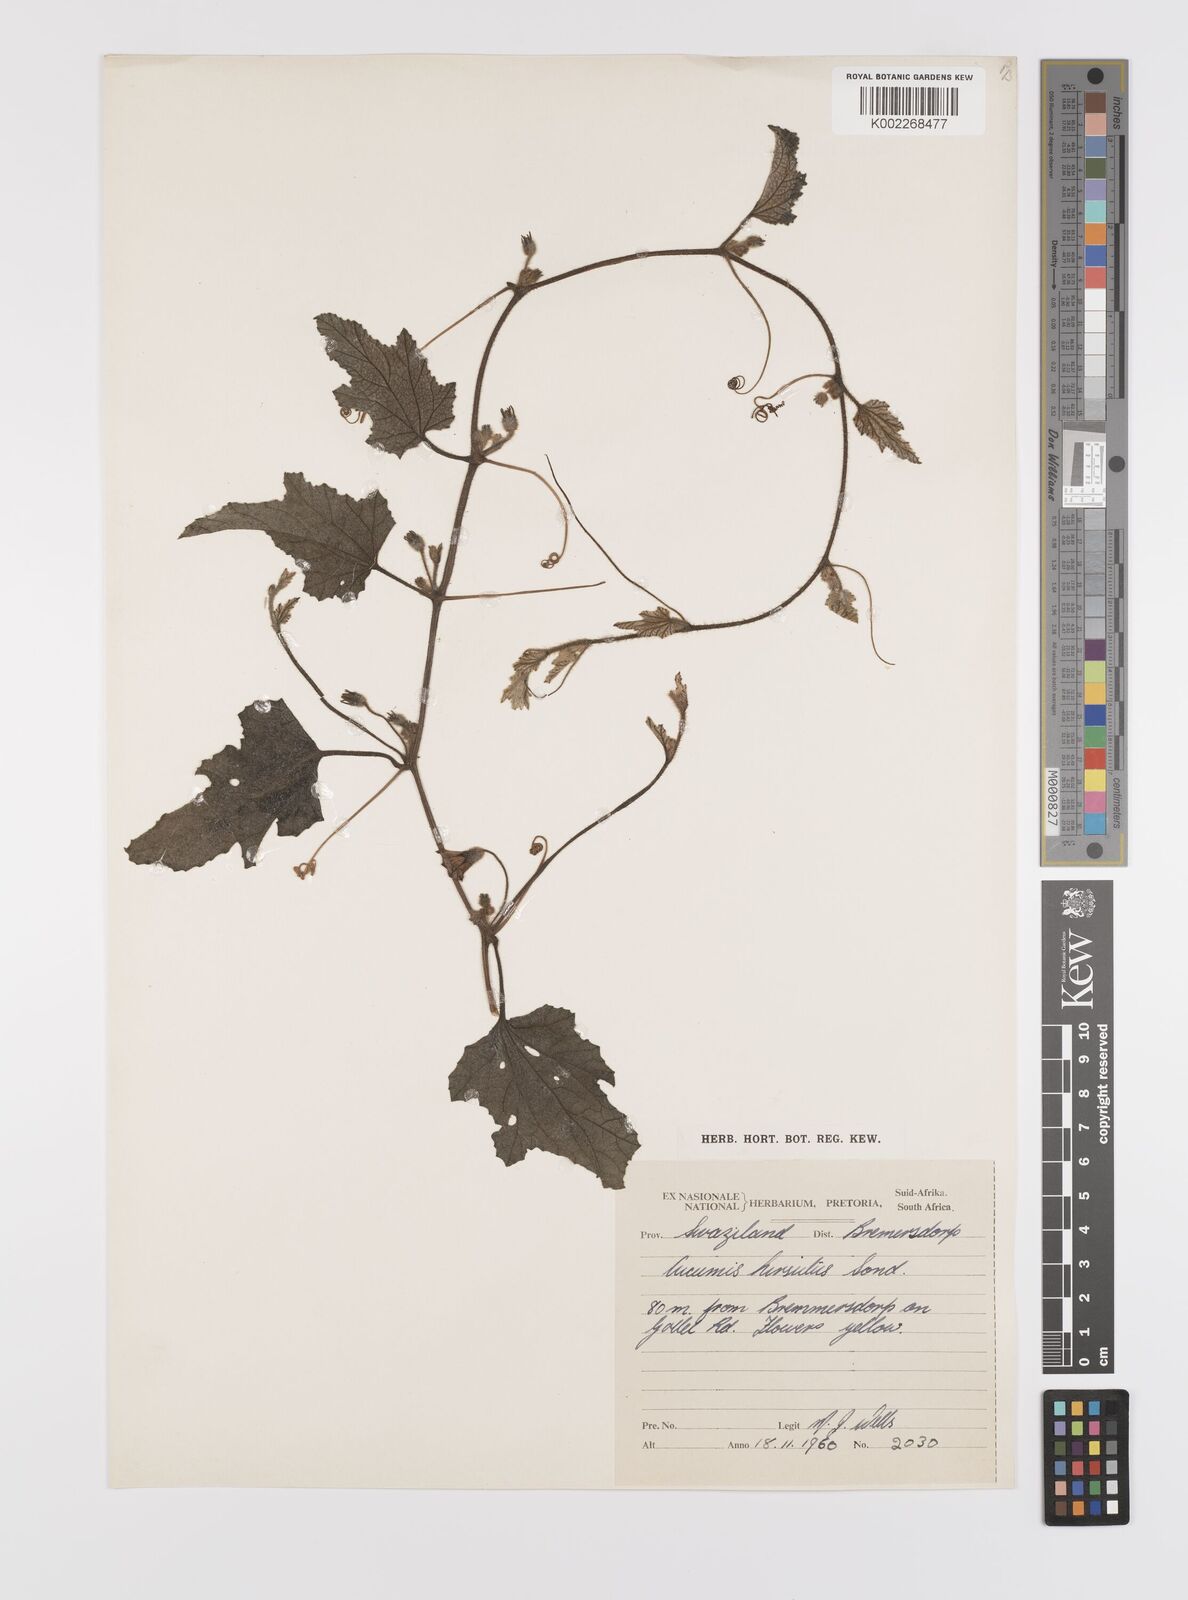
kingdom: Plantae
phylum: Tracheophyta
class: Magnoliopsida
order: Cucurbitales
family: Cucurbitaceae
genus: Cucumis
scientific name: Cucumis hirsutus
